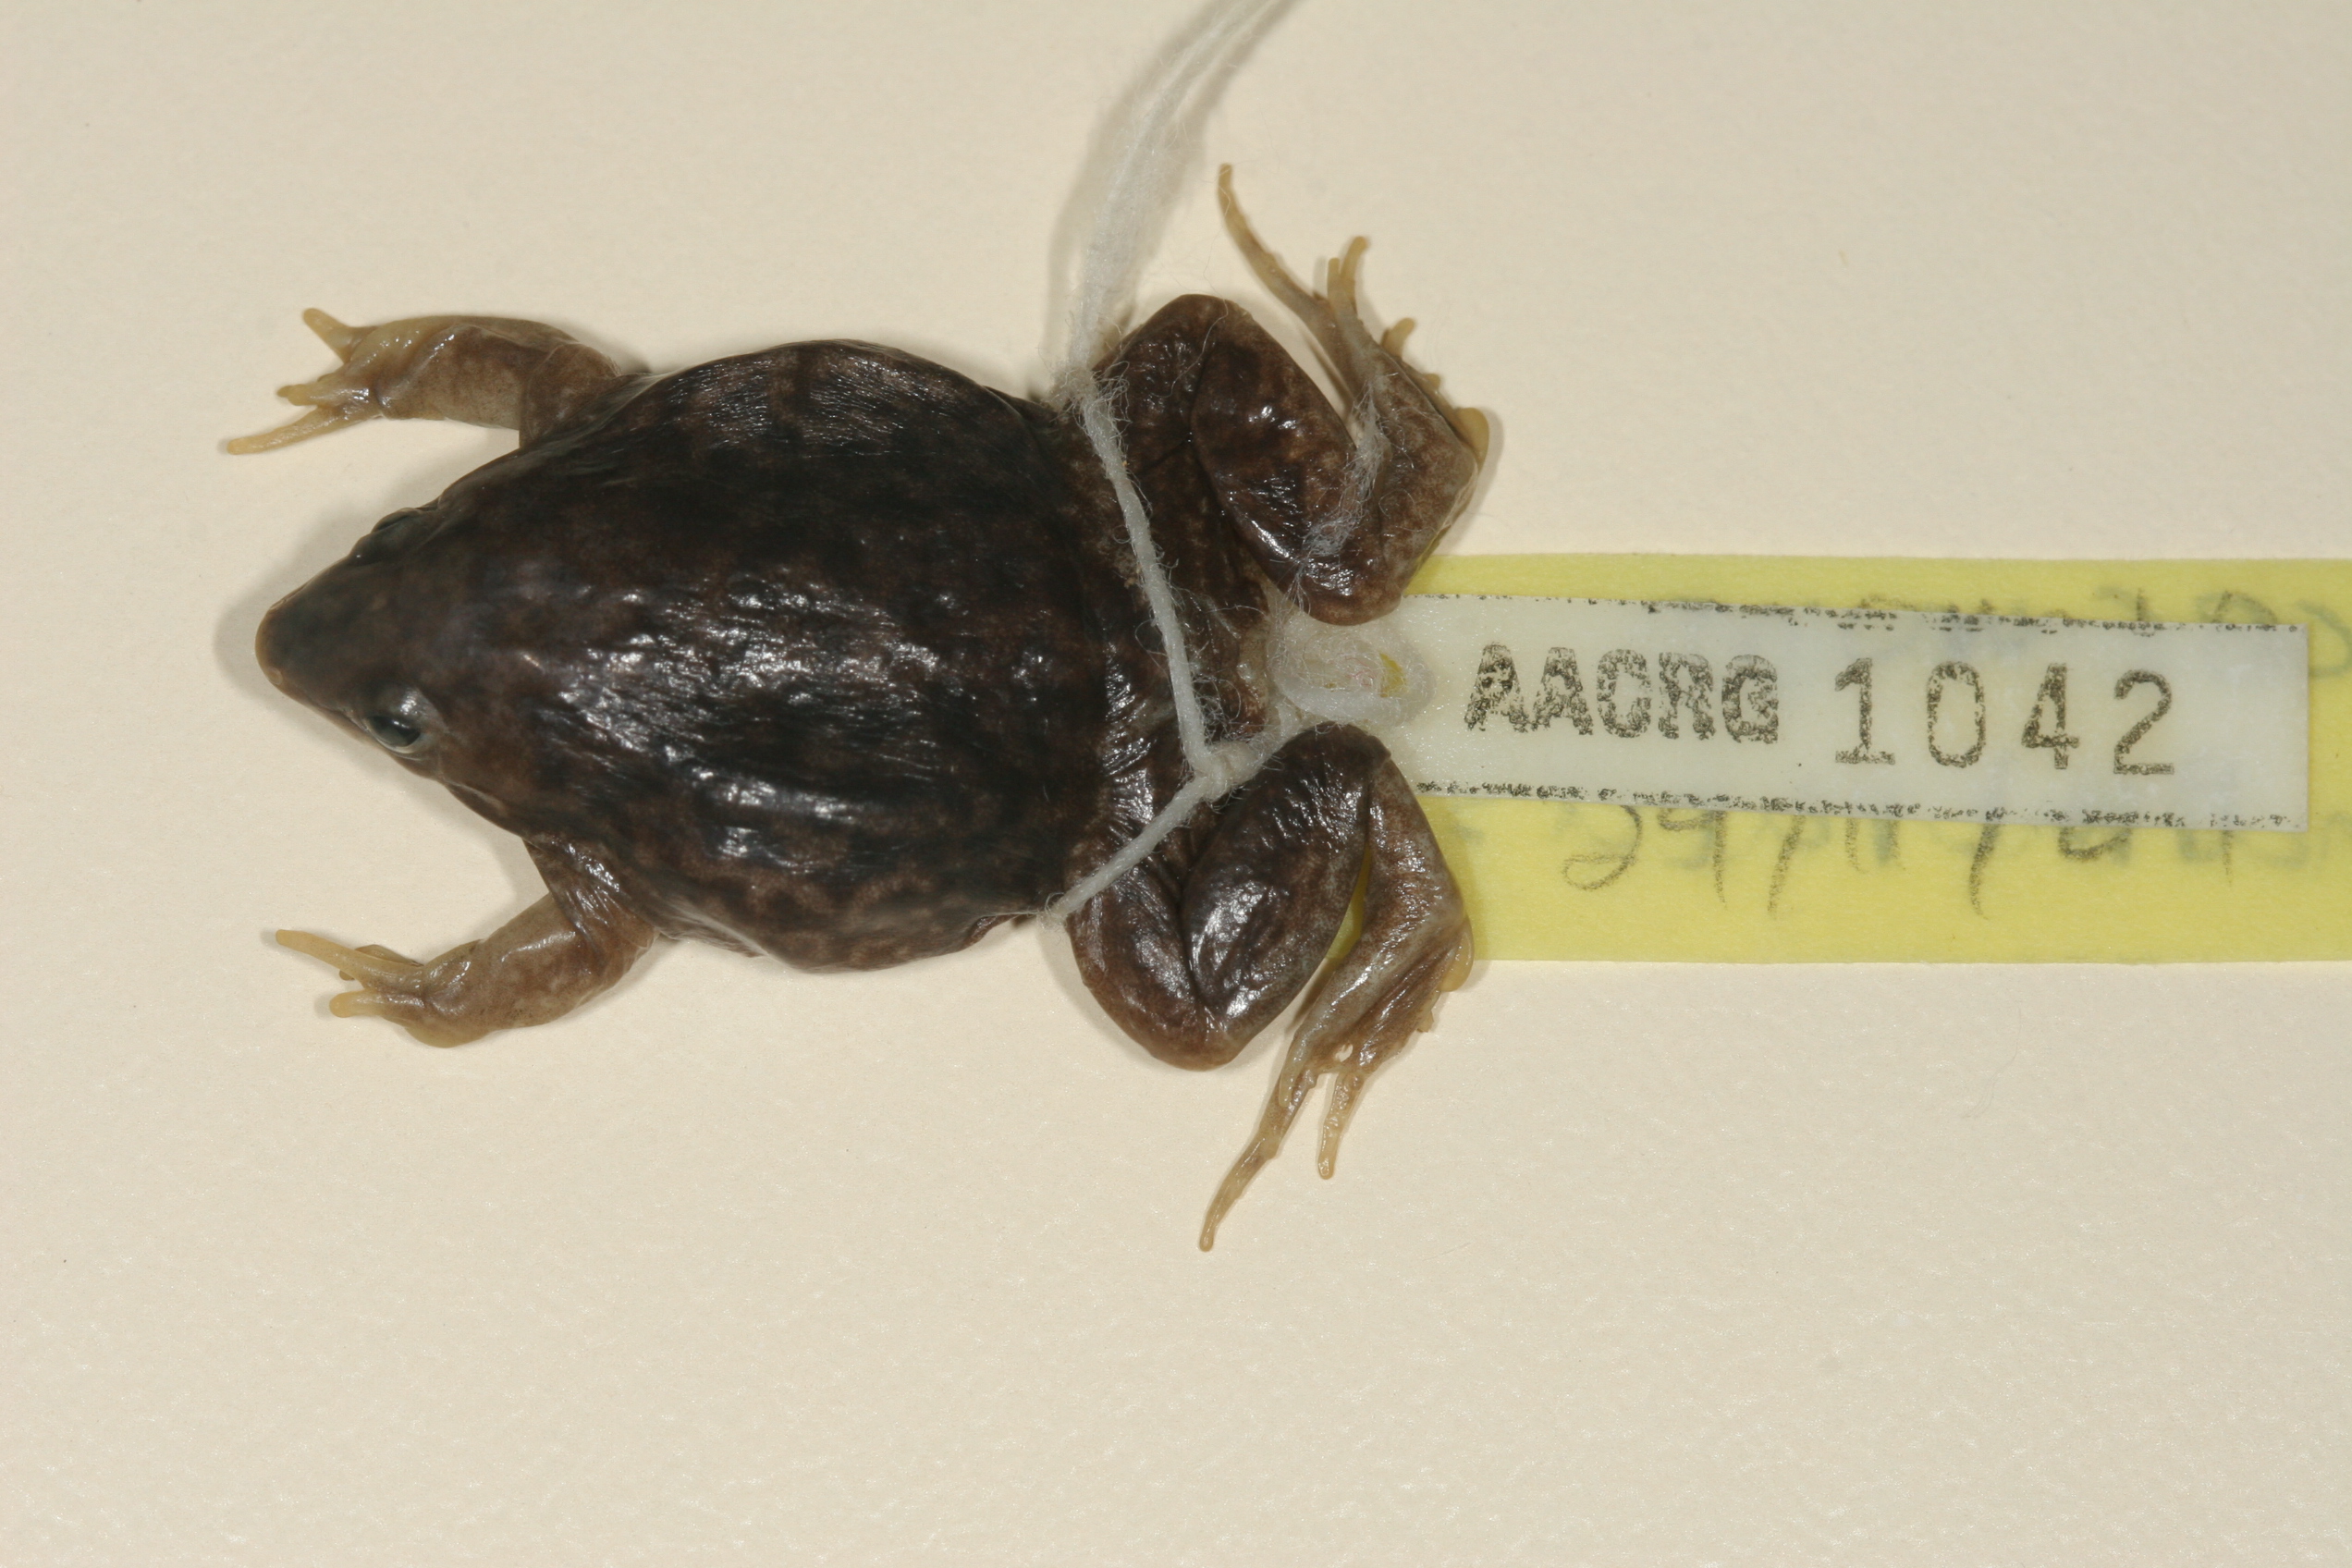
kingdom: Animalia
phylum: Chordata
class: Amphibia
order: Anura
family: Hemisotidae
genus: Hemisus
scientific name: Hemisus marmoratus
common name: Mottled shovel-nosed frog
